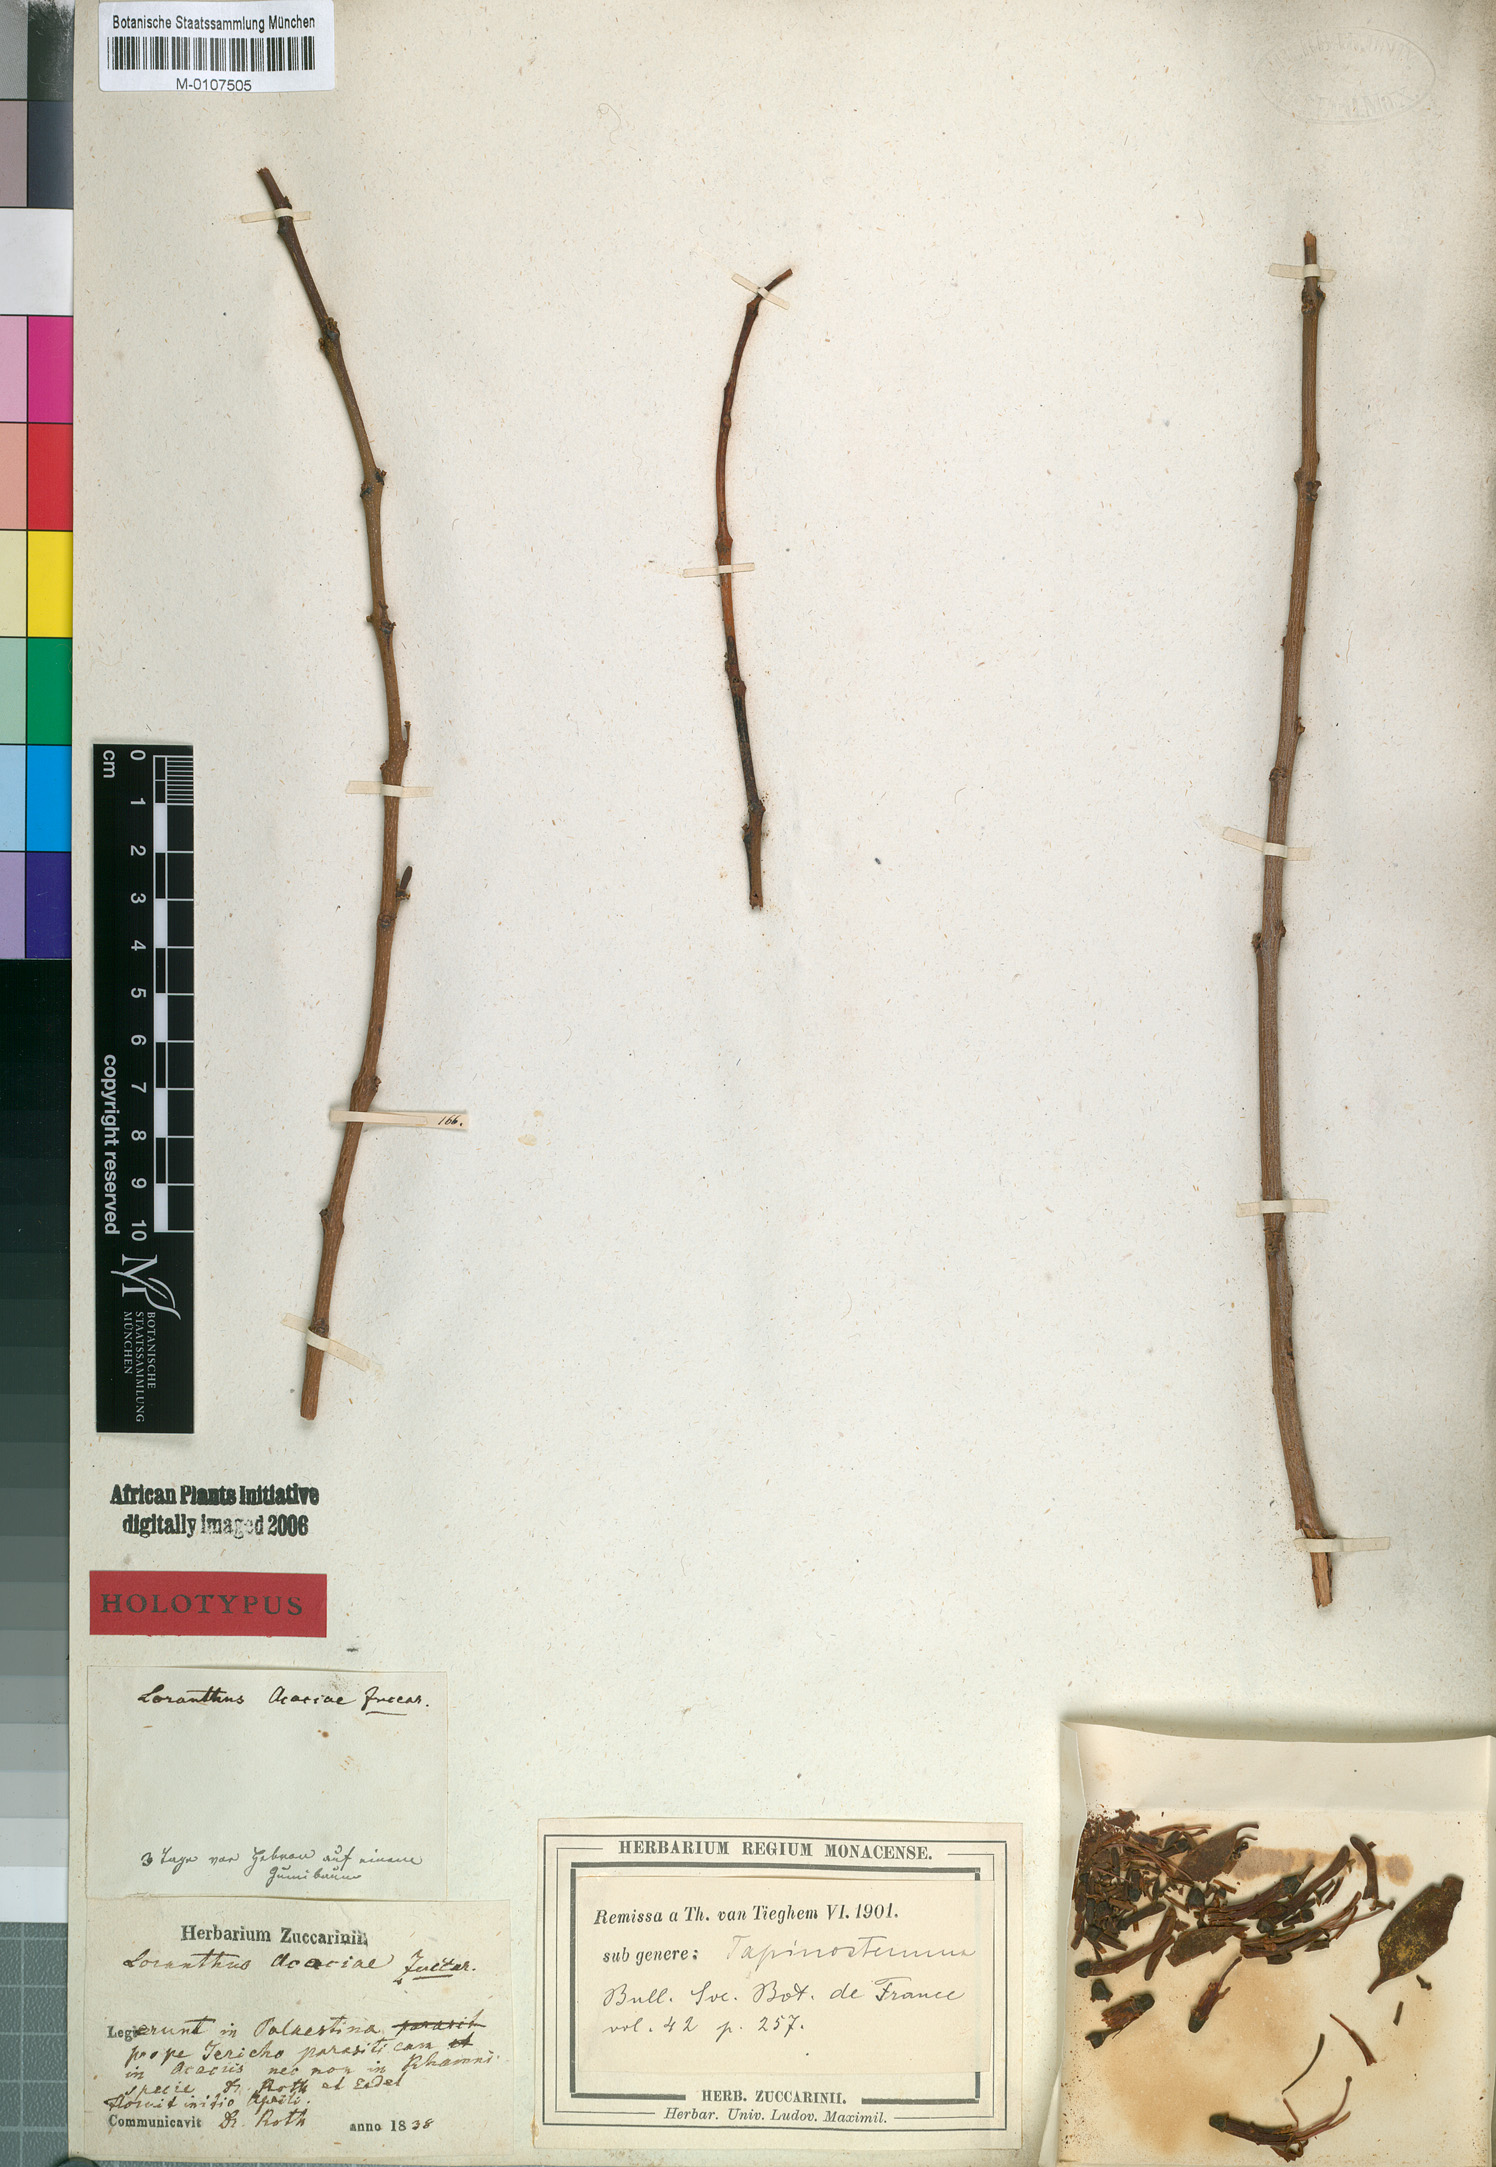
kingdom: Plantae
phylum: Tracheophyta
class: Magnoliopsida
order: Santalales
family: Loranthaceae
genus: Plicosepalus
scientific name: Plicosepalus acaciae
